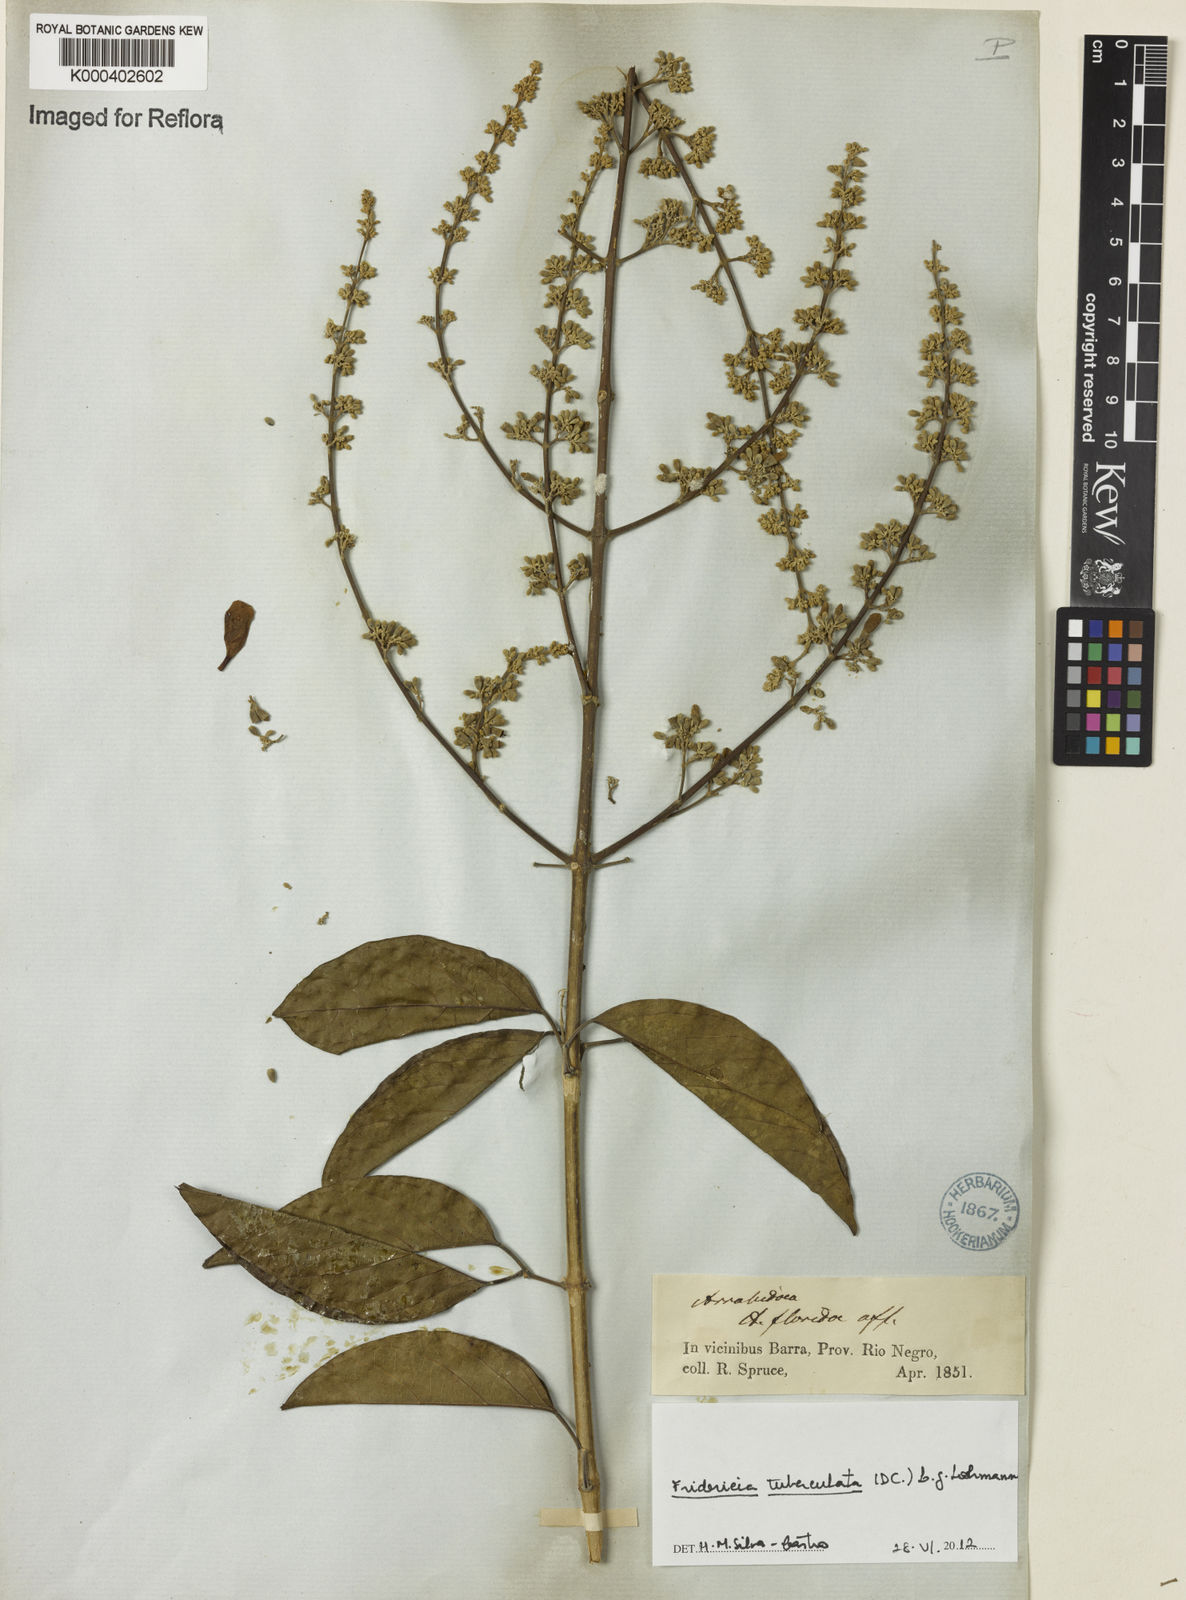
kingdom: Plantae
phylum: Tracheophyta
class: Magnoliopsida
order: Lamiales
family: Bignoniaceae
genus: Fridericia
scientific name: Fridericia tuberculata
